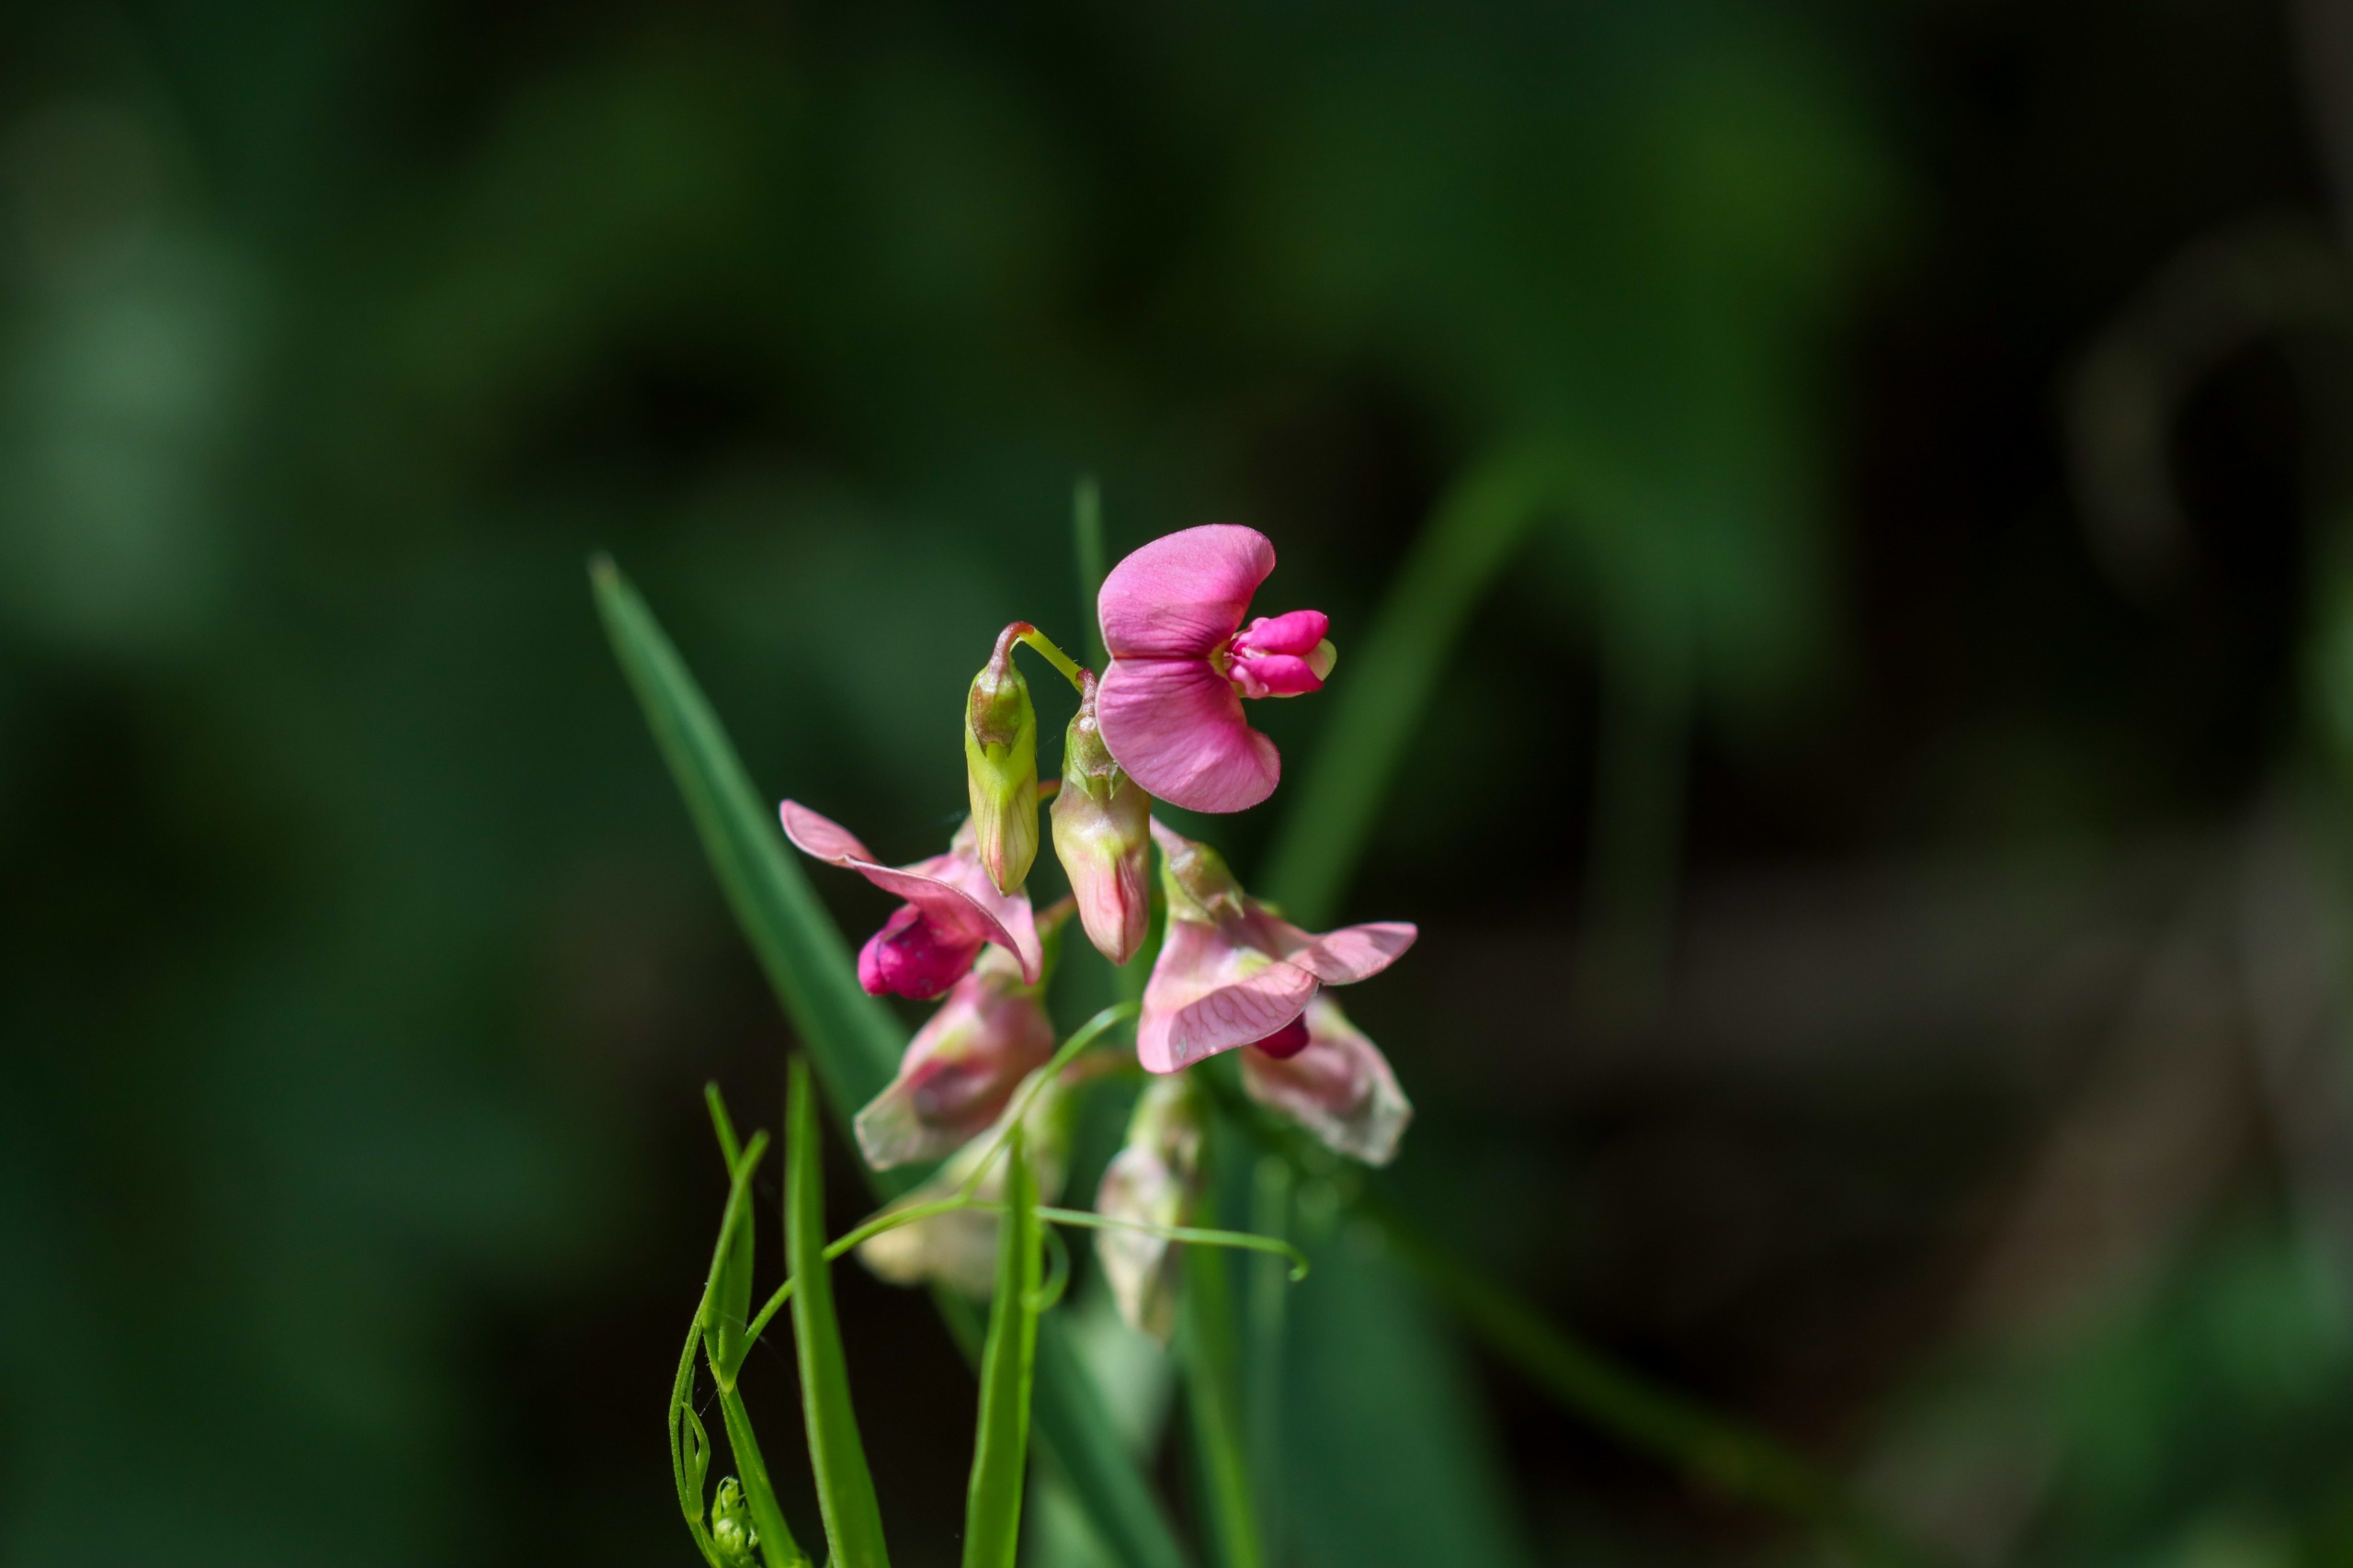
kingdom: Plantae
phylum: Tracheophyta
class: Magnoliopsida
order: Fabales
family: Fabaceae
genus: Lathyrus
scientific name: Lathyrus sylvestris
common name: Skov-fladbælg
